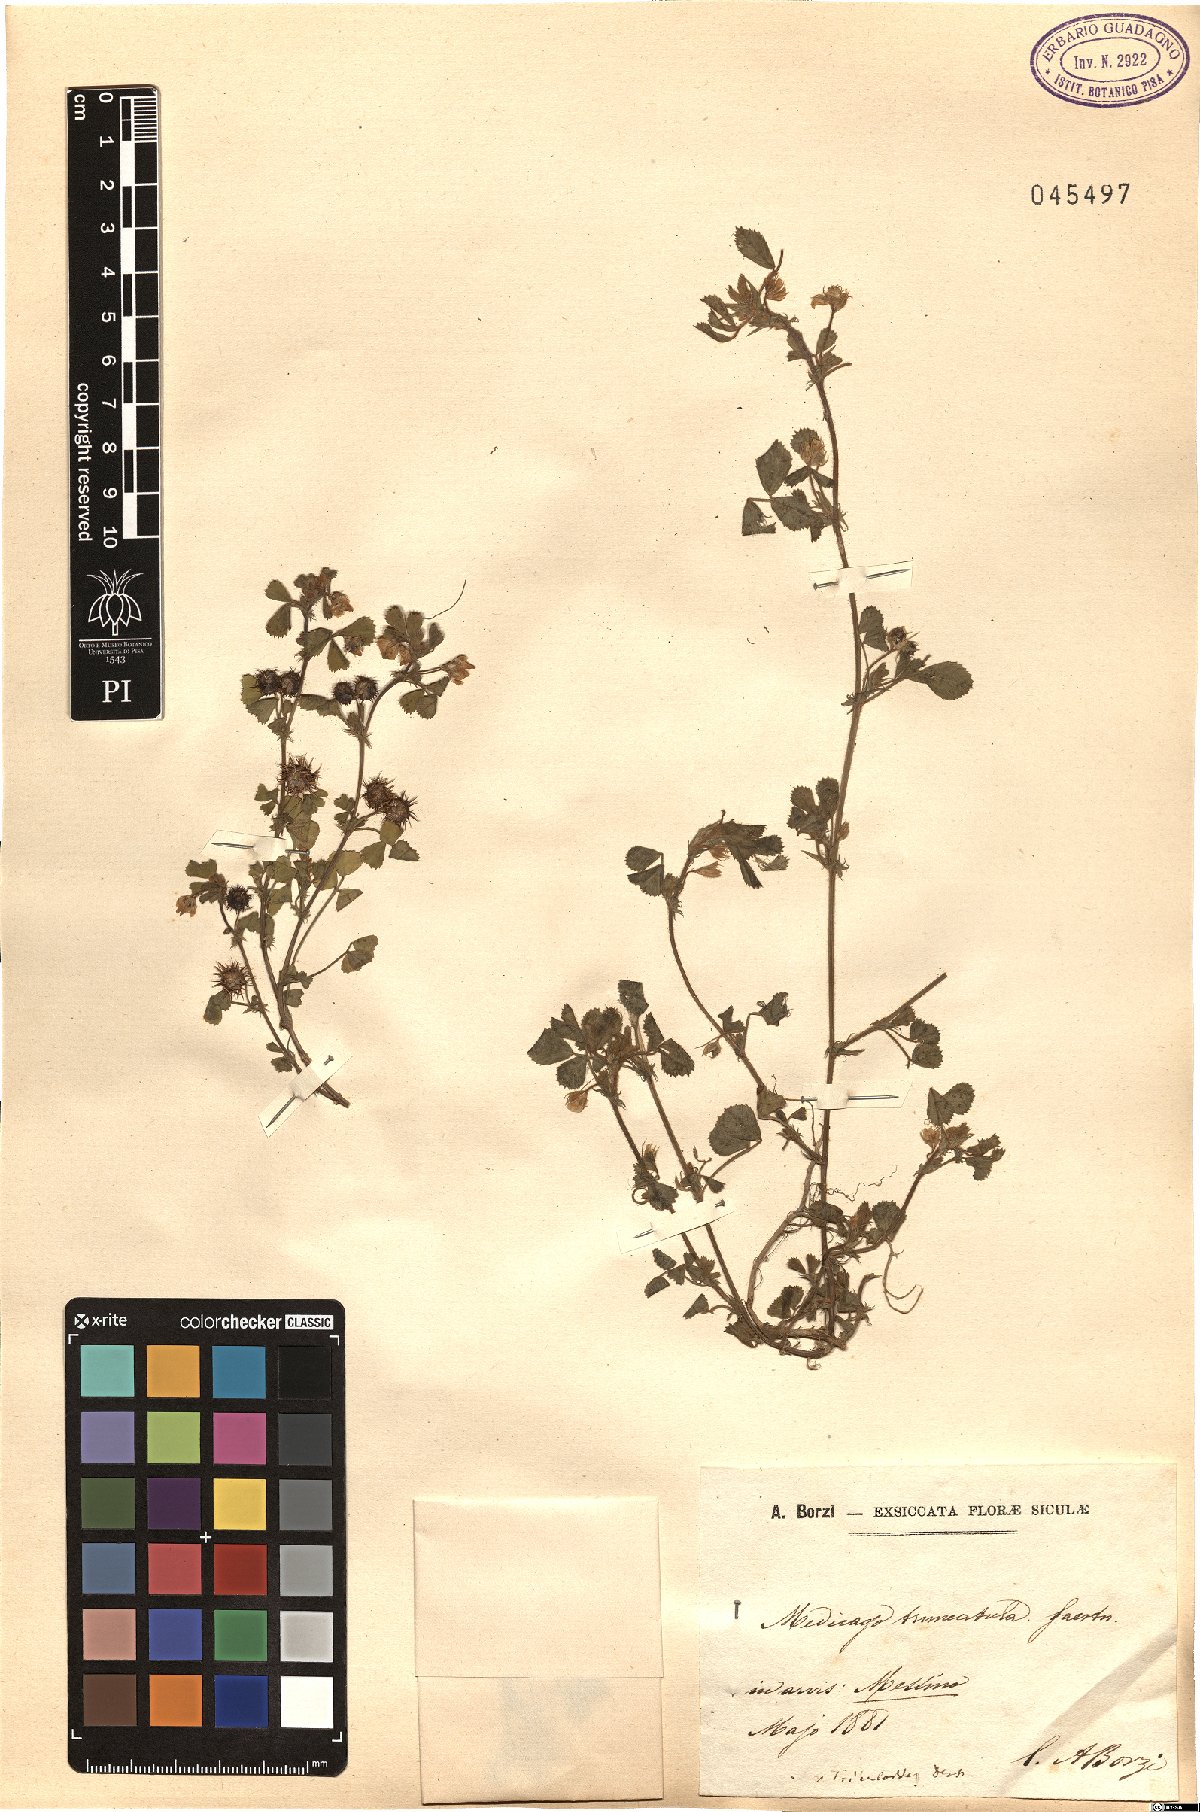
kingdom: Plantae
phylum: Tracheophyta
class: Magnoliopsida
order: Fabales
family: Fabaceae
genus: Medicago
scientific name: Medicago truncatula
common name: Strong-spined medick
